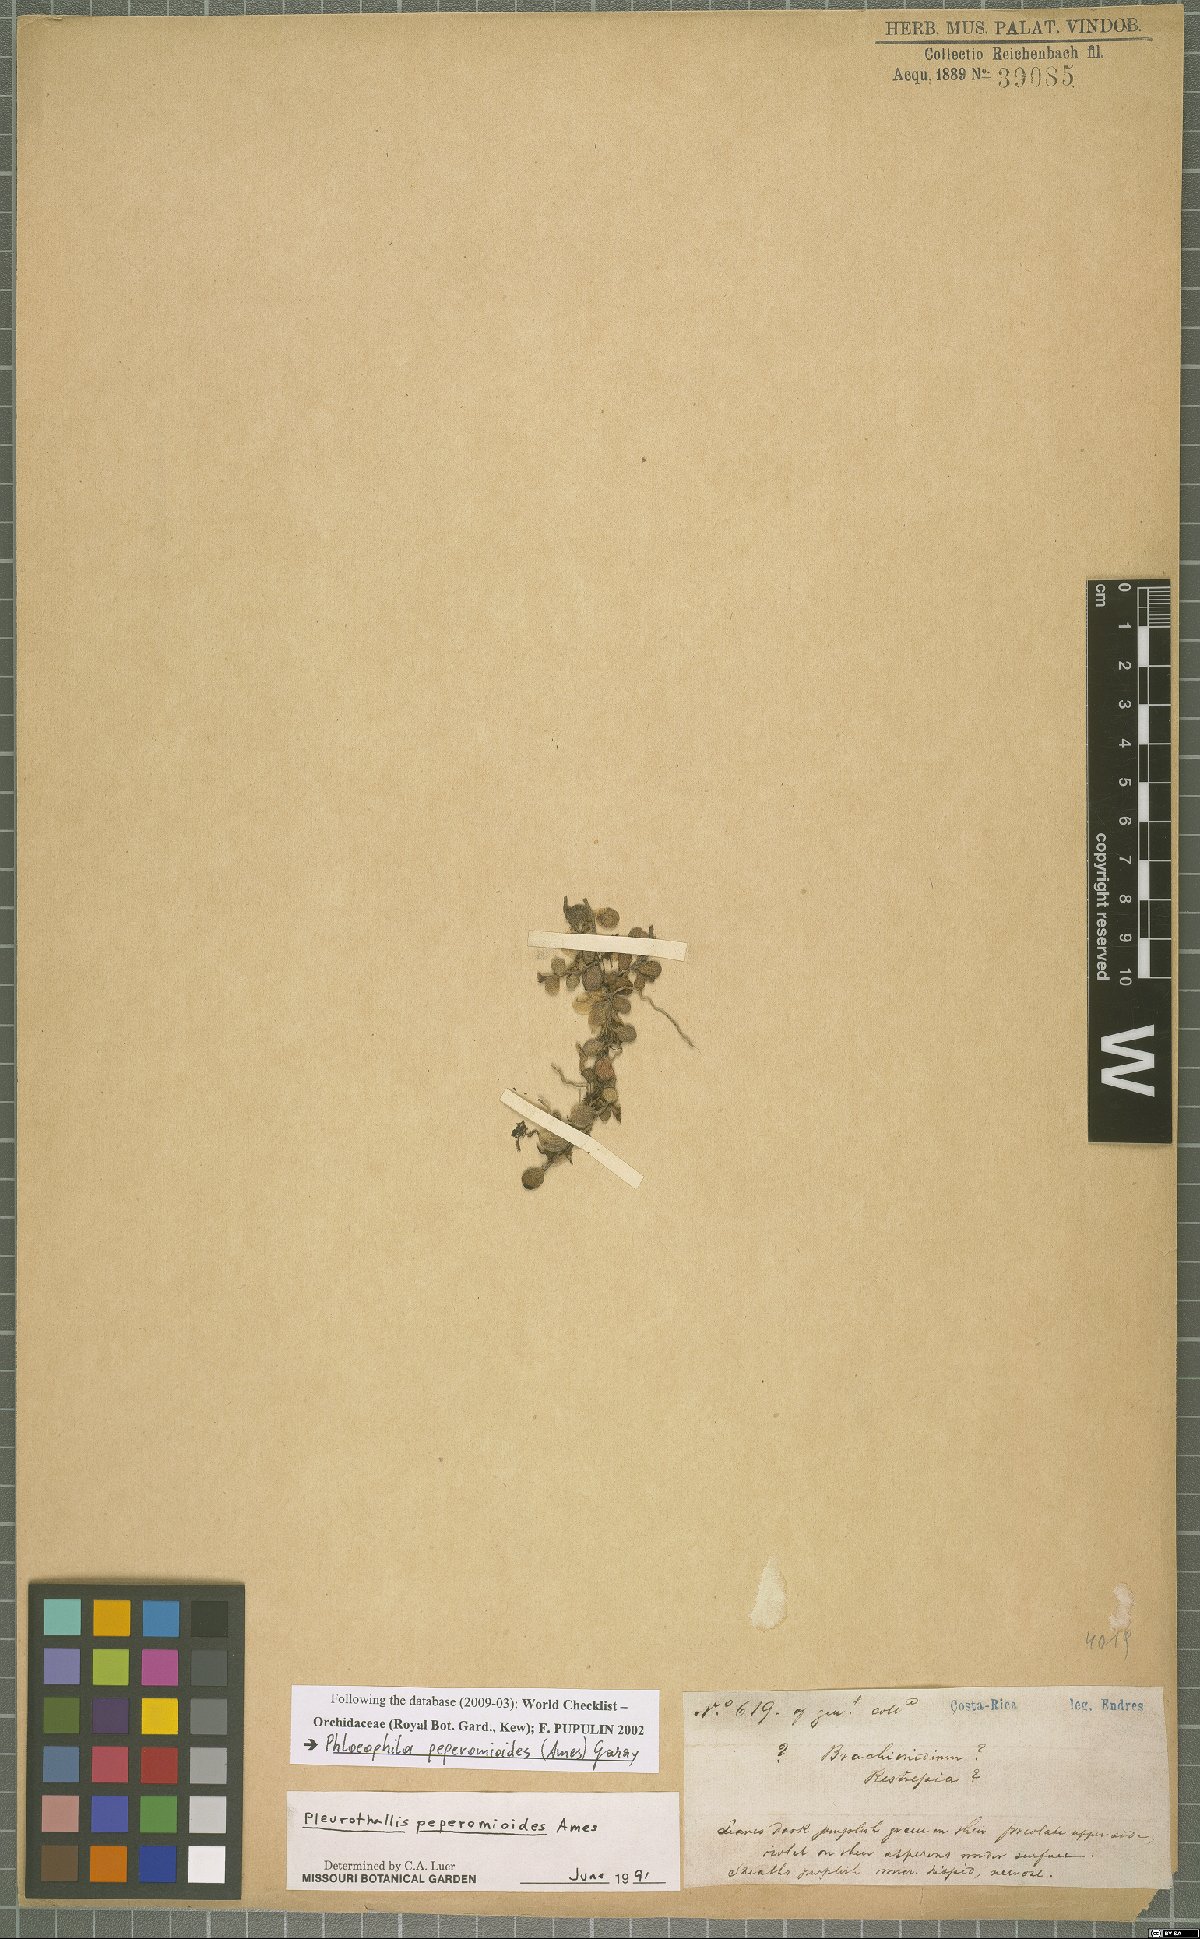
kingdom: Plantae
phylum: Tracheophyta
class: Liliopsida
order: Asparagales
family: Orchidaceae
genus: Phloeophila
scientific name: Phloeophila peperomioides
